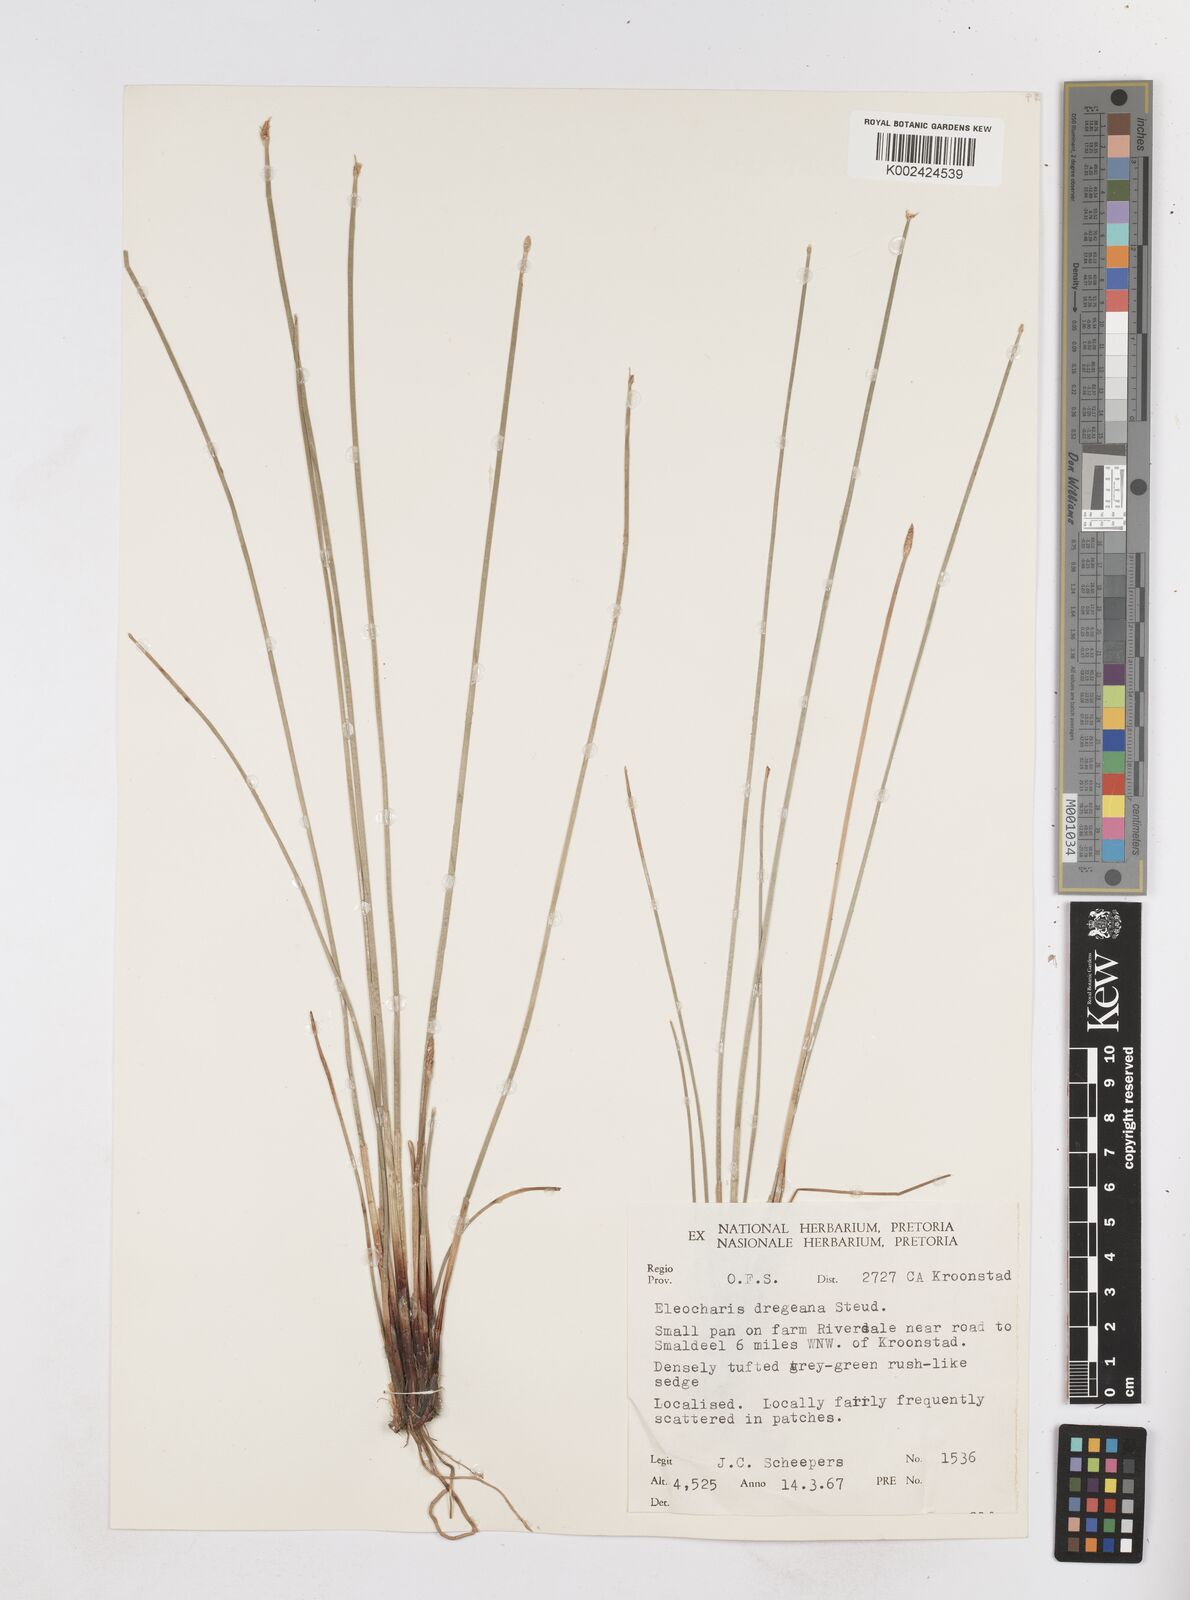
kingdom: Plantae
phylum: Tracheophyta
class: Liliopsida
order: Poales
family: Cyperaceae
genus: Eleocharis
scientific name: Eleocharis palustris
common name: Common spike-rush
